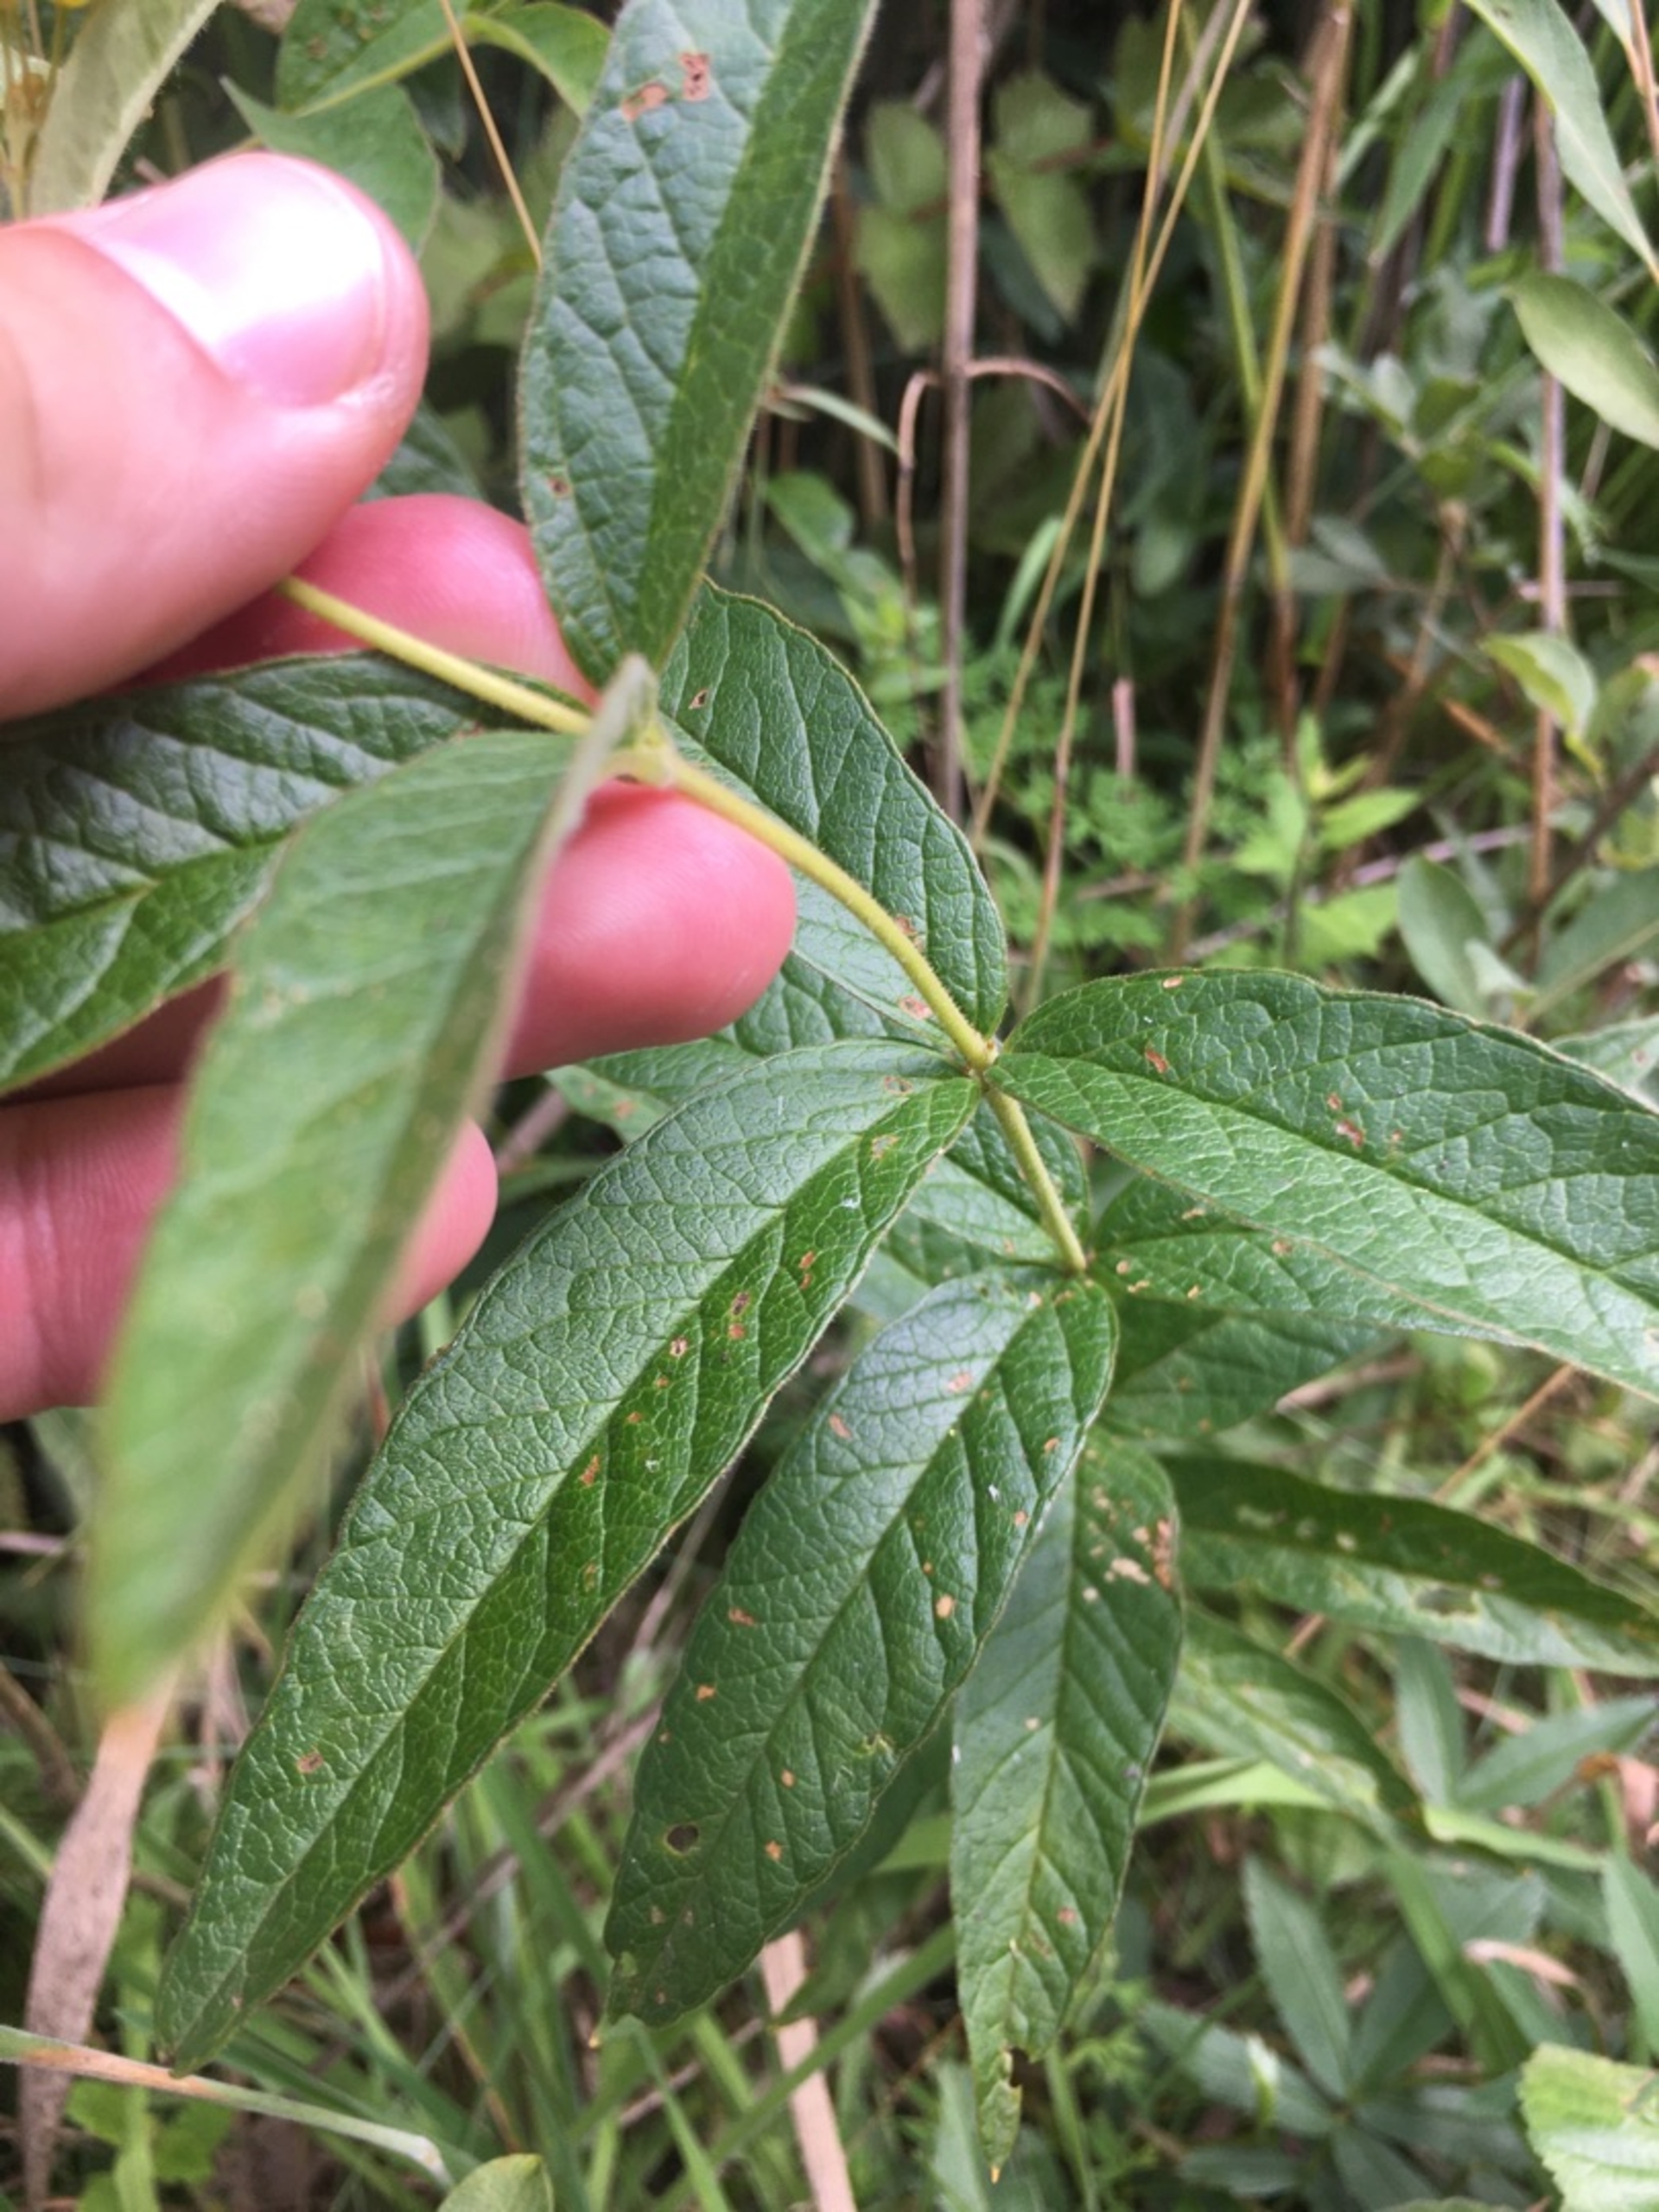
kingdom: Plantae
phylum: Tracheophyta
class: Magnoliopsida
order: Ericales
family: Primulaceae
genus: Lysimachia
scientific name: Lysimachia vulgaris
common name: Almindelig fredløs
